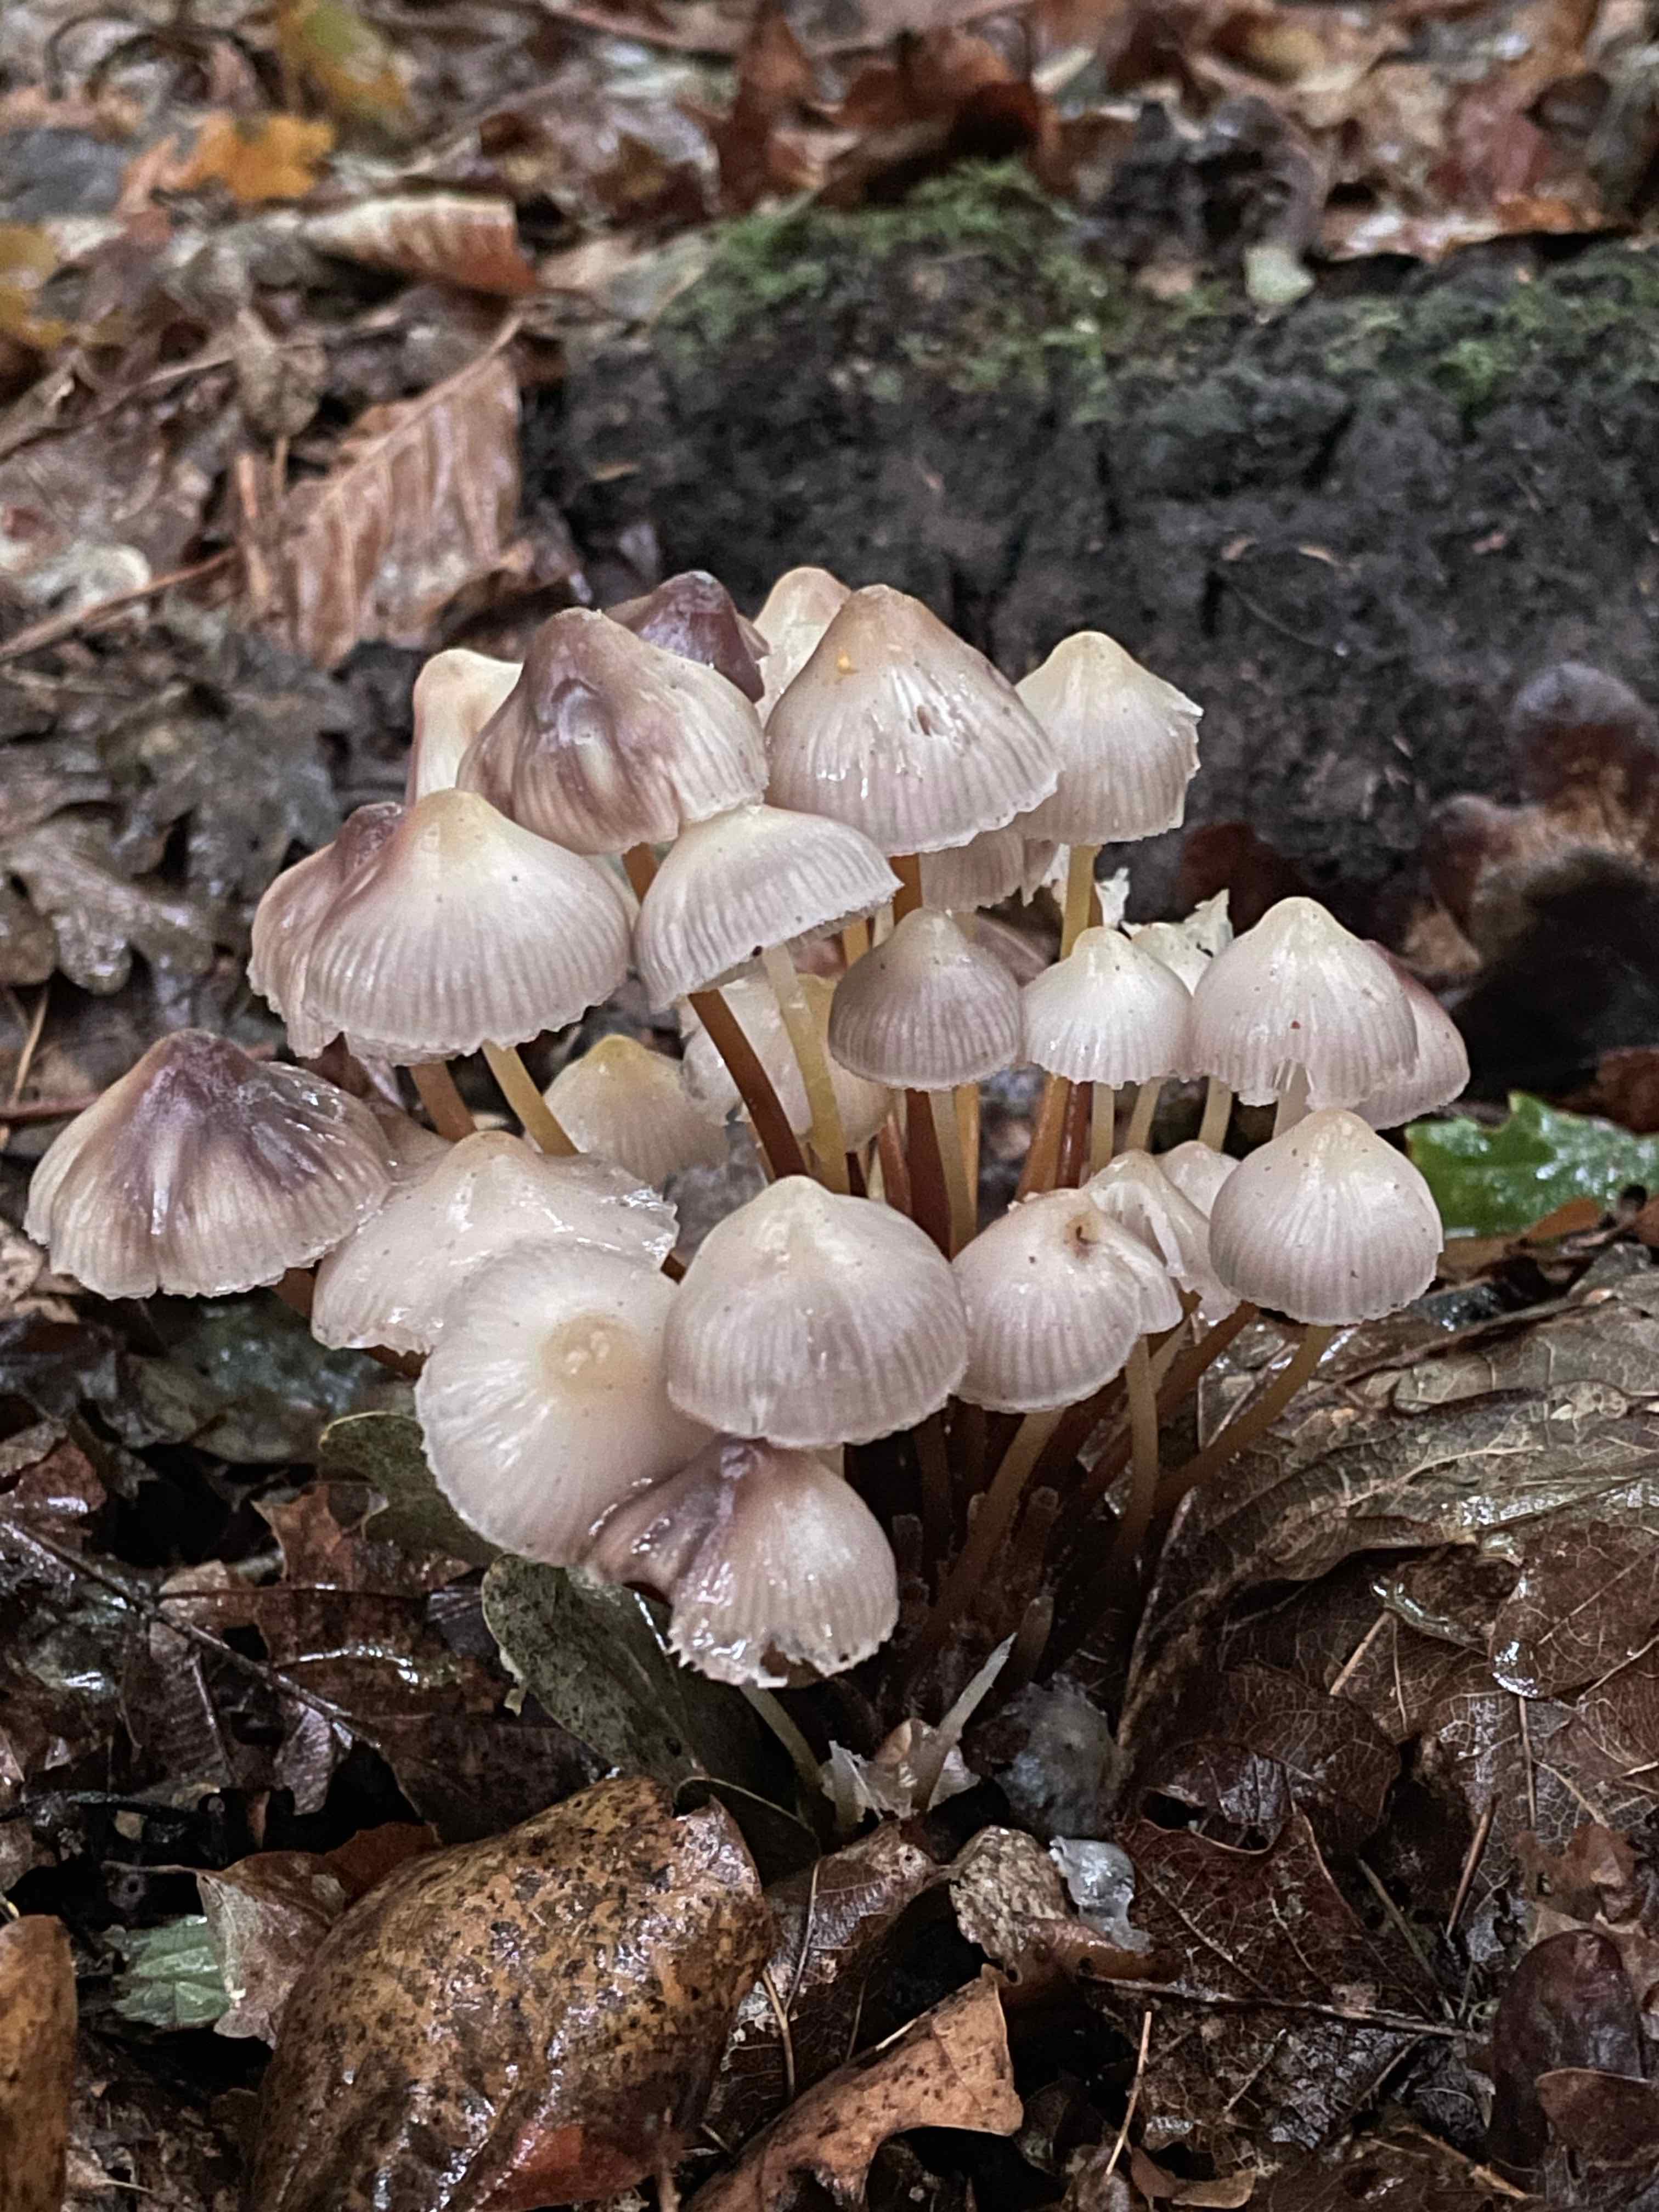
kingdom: Fungi
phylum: Basidiomycota
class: Agaricomycetes
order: Agaricales
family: Mycenaceae
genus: Mycena
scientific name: Mycena inclinata
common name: nikkende huesvamp
